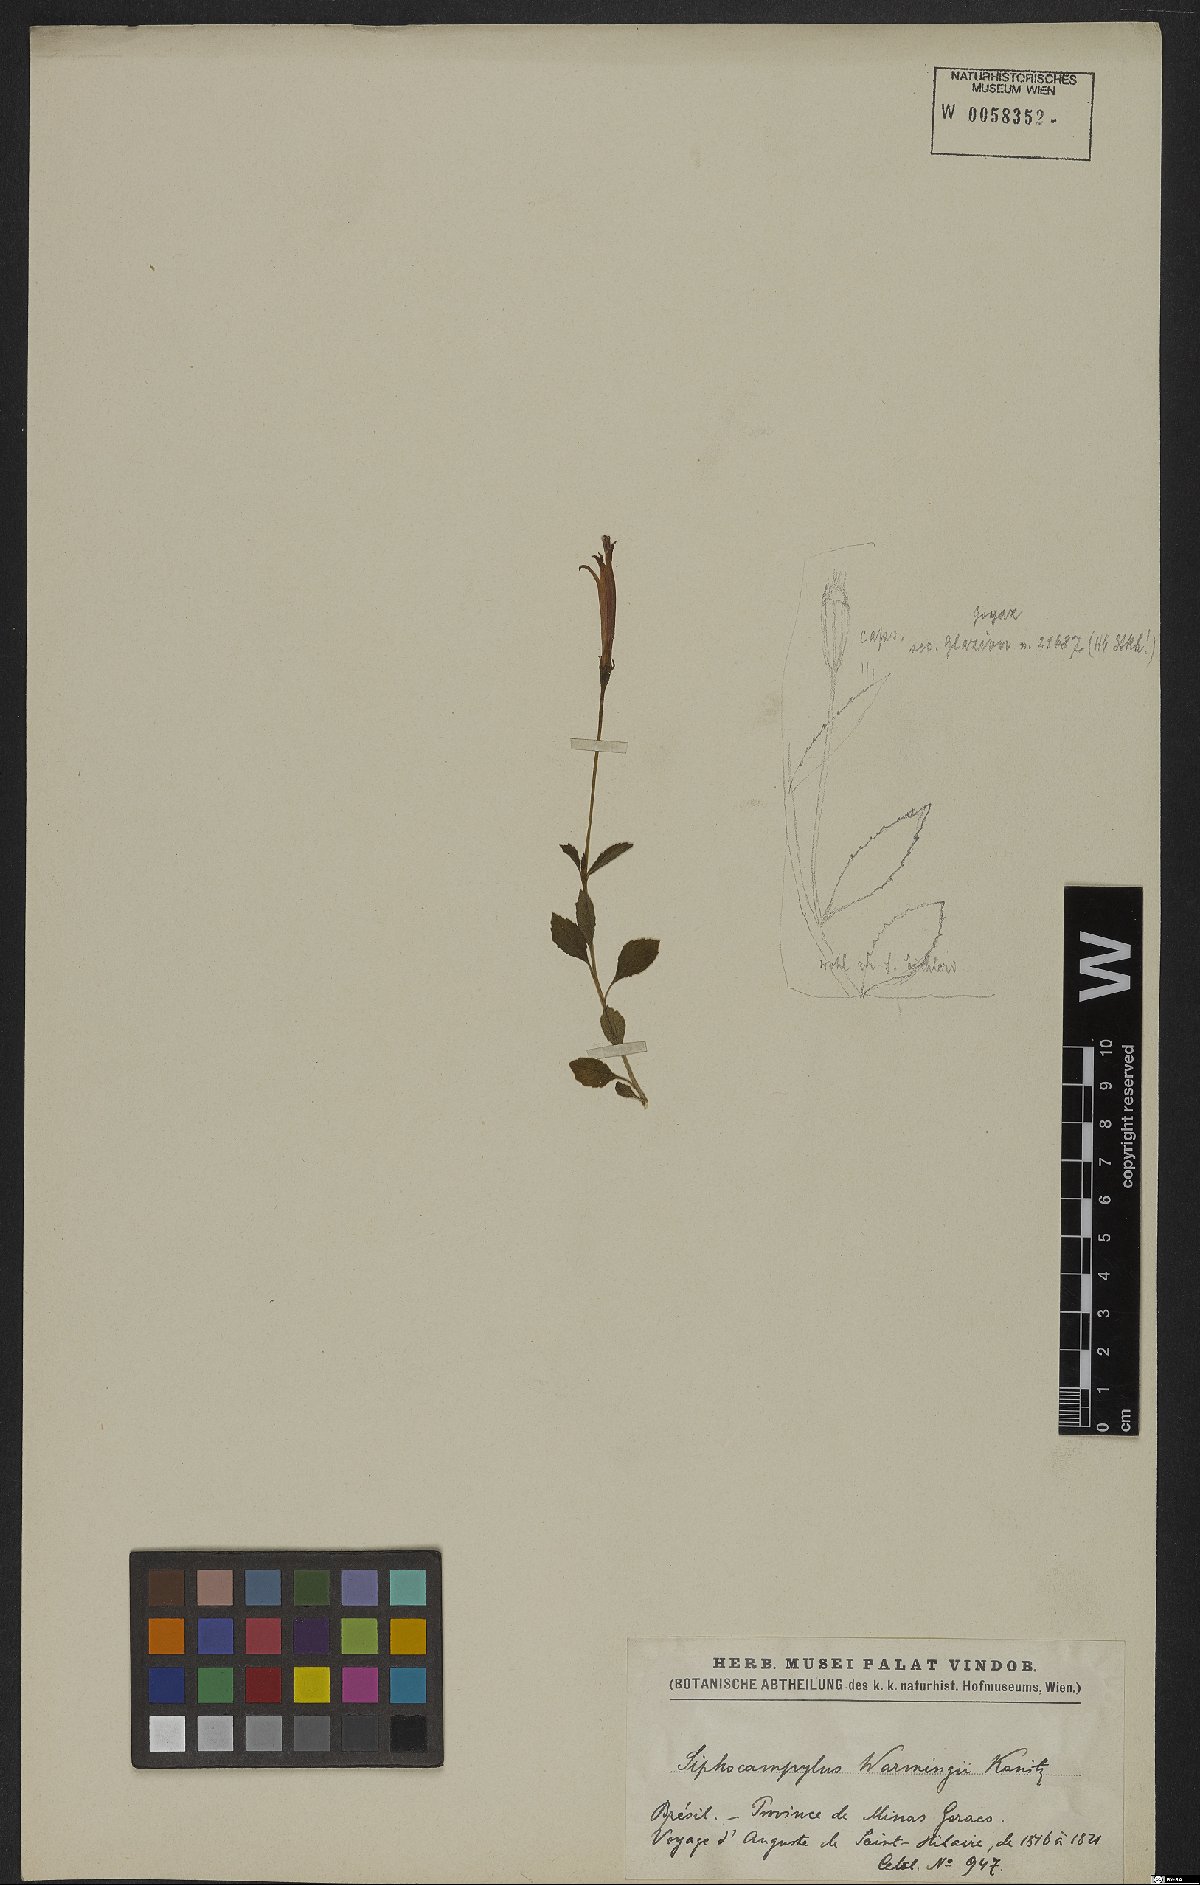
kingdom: Plantae
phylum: Tracheophyta
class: Magnoliopsida
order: Asterales
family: Campanulaceae
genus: Siphocampylus
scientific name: Siphocampylus warmingii
